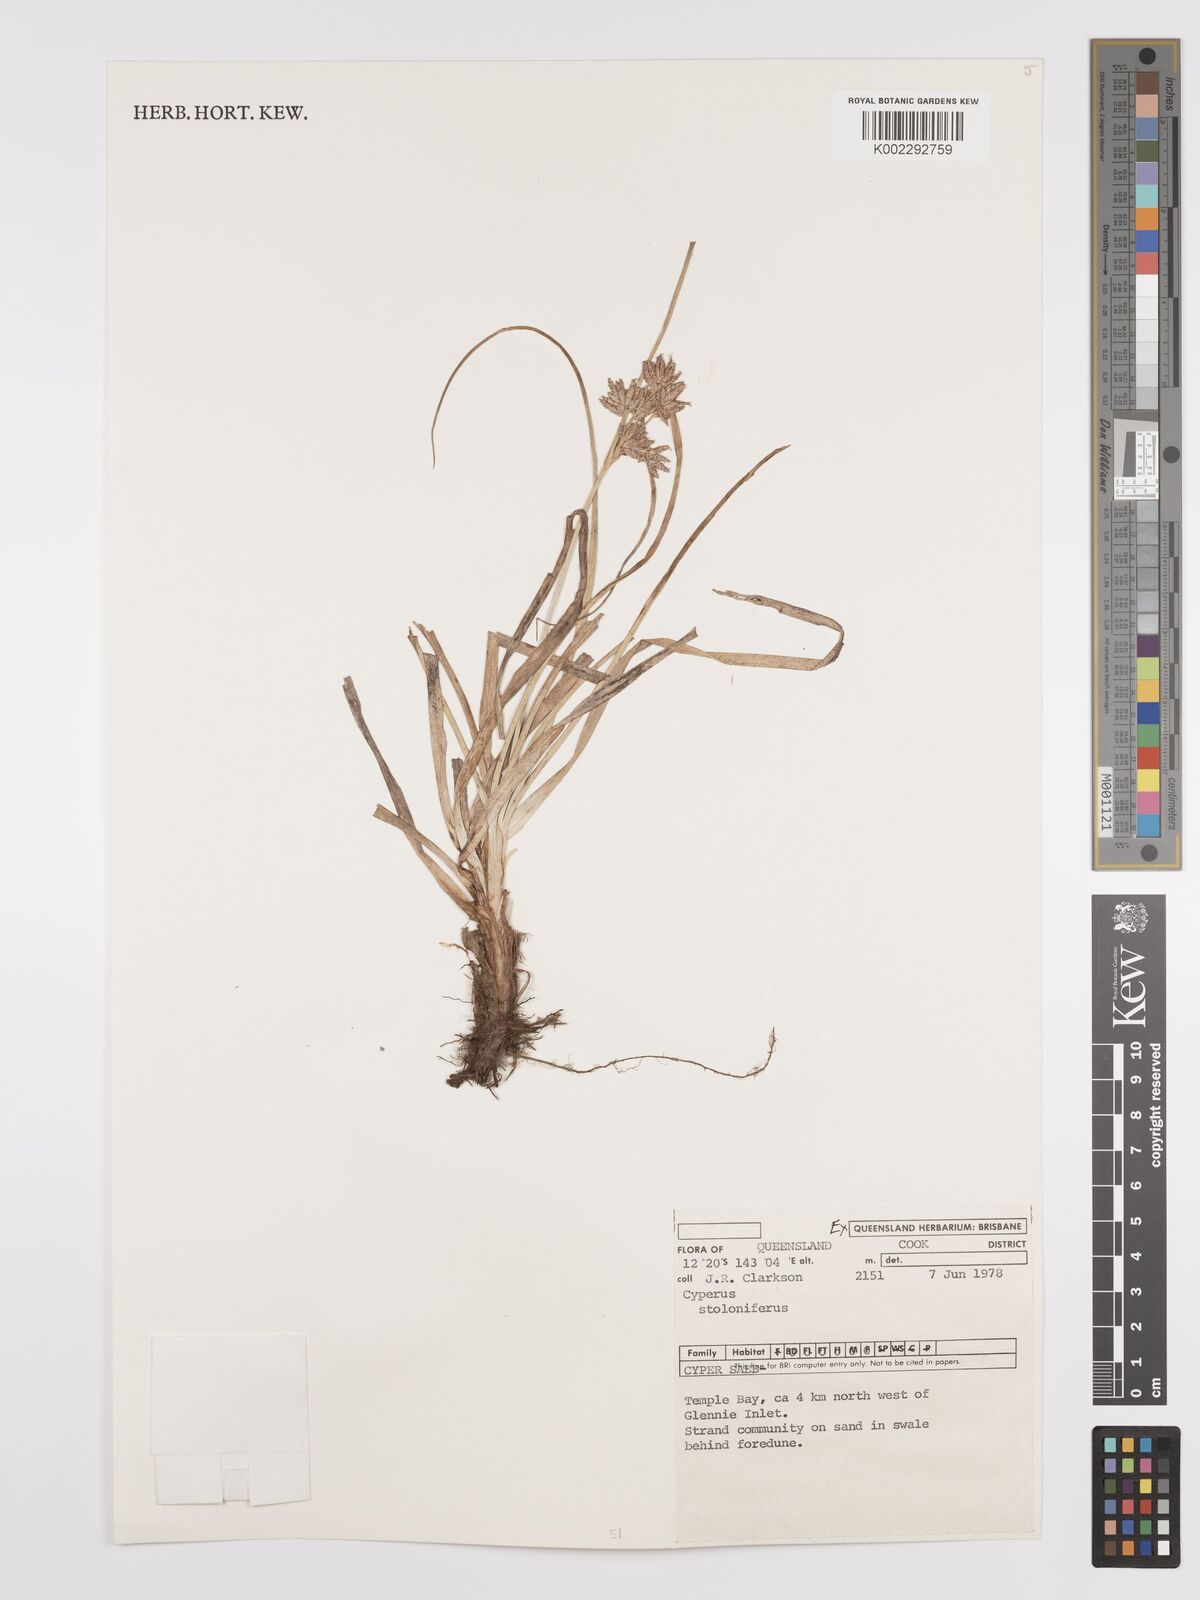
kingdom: Plantae
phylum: Tracheophyta
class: Liliopsida
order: Poales
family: Cyperaceae
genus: Cyperus
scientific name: Cyperus bulbosus
